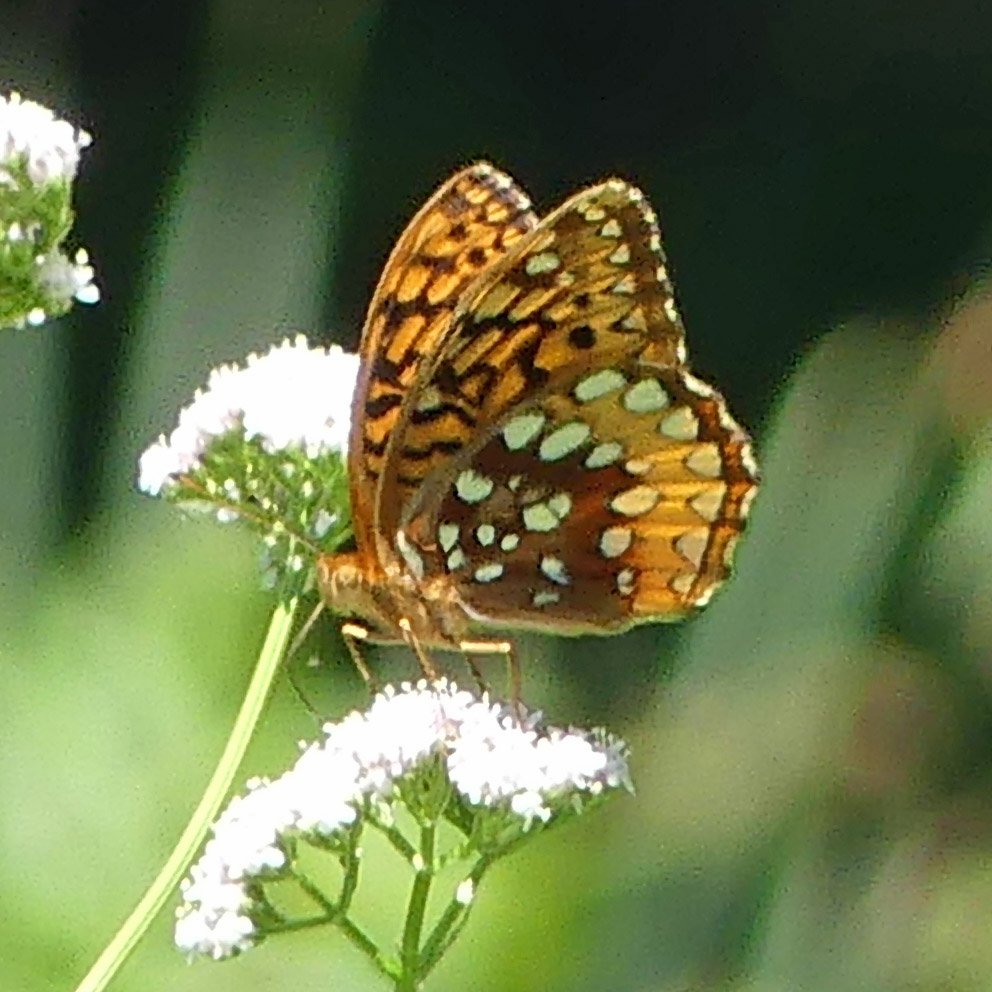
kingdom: Animalia
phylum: Arthropoda
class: Insecta
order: Lepidoptera
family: Nymphalidae
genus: Speyeria
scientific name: Speyeria cybele
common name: Great Spangled Fritillary
